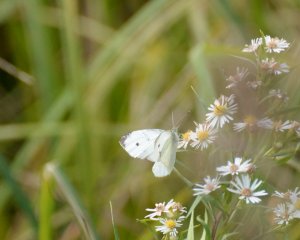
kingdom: Animalia
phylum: Arthropoda
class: Insecta
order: Lepidoptera
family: Pieridae
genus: Pieris
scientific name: Pieris rapae
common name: Cabbage White
